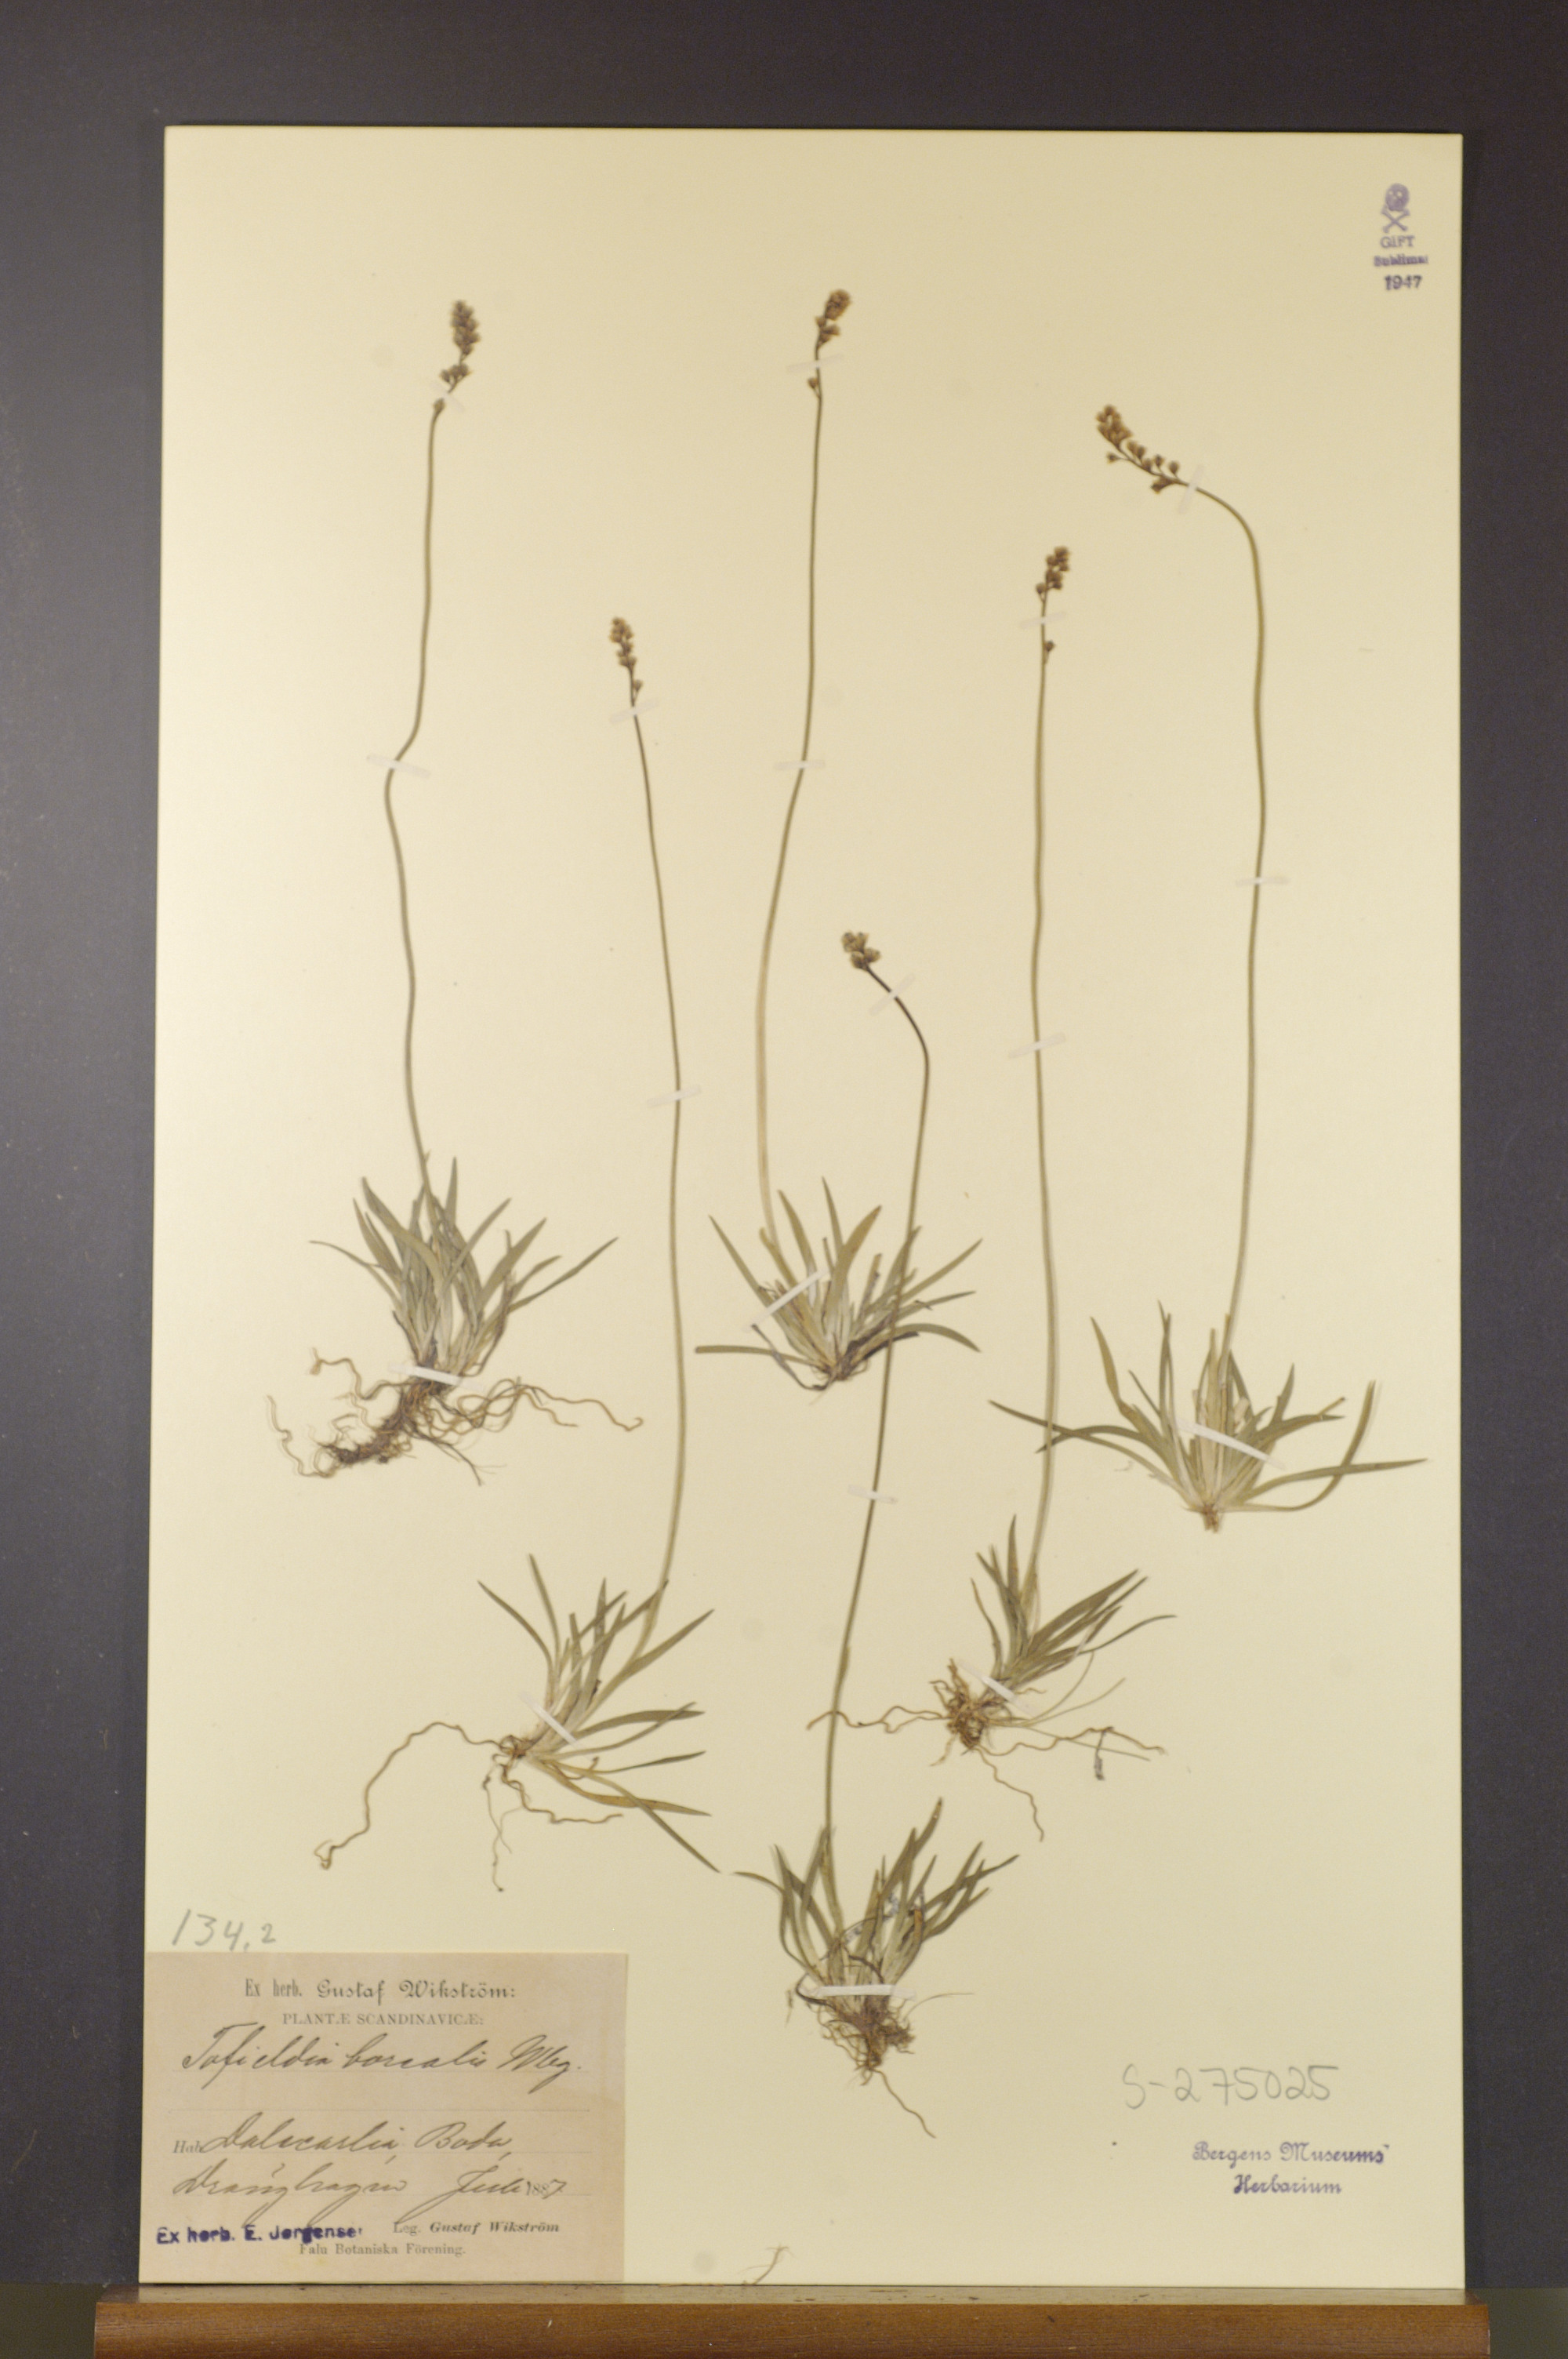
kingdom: Plantae
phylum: Tracheophyta
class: Liliopsida
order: Alismatales
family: Tofieldiaceae
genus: Tofieldia
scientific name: Tofieldia pusilla
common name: Scottish false asphodel
